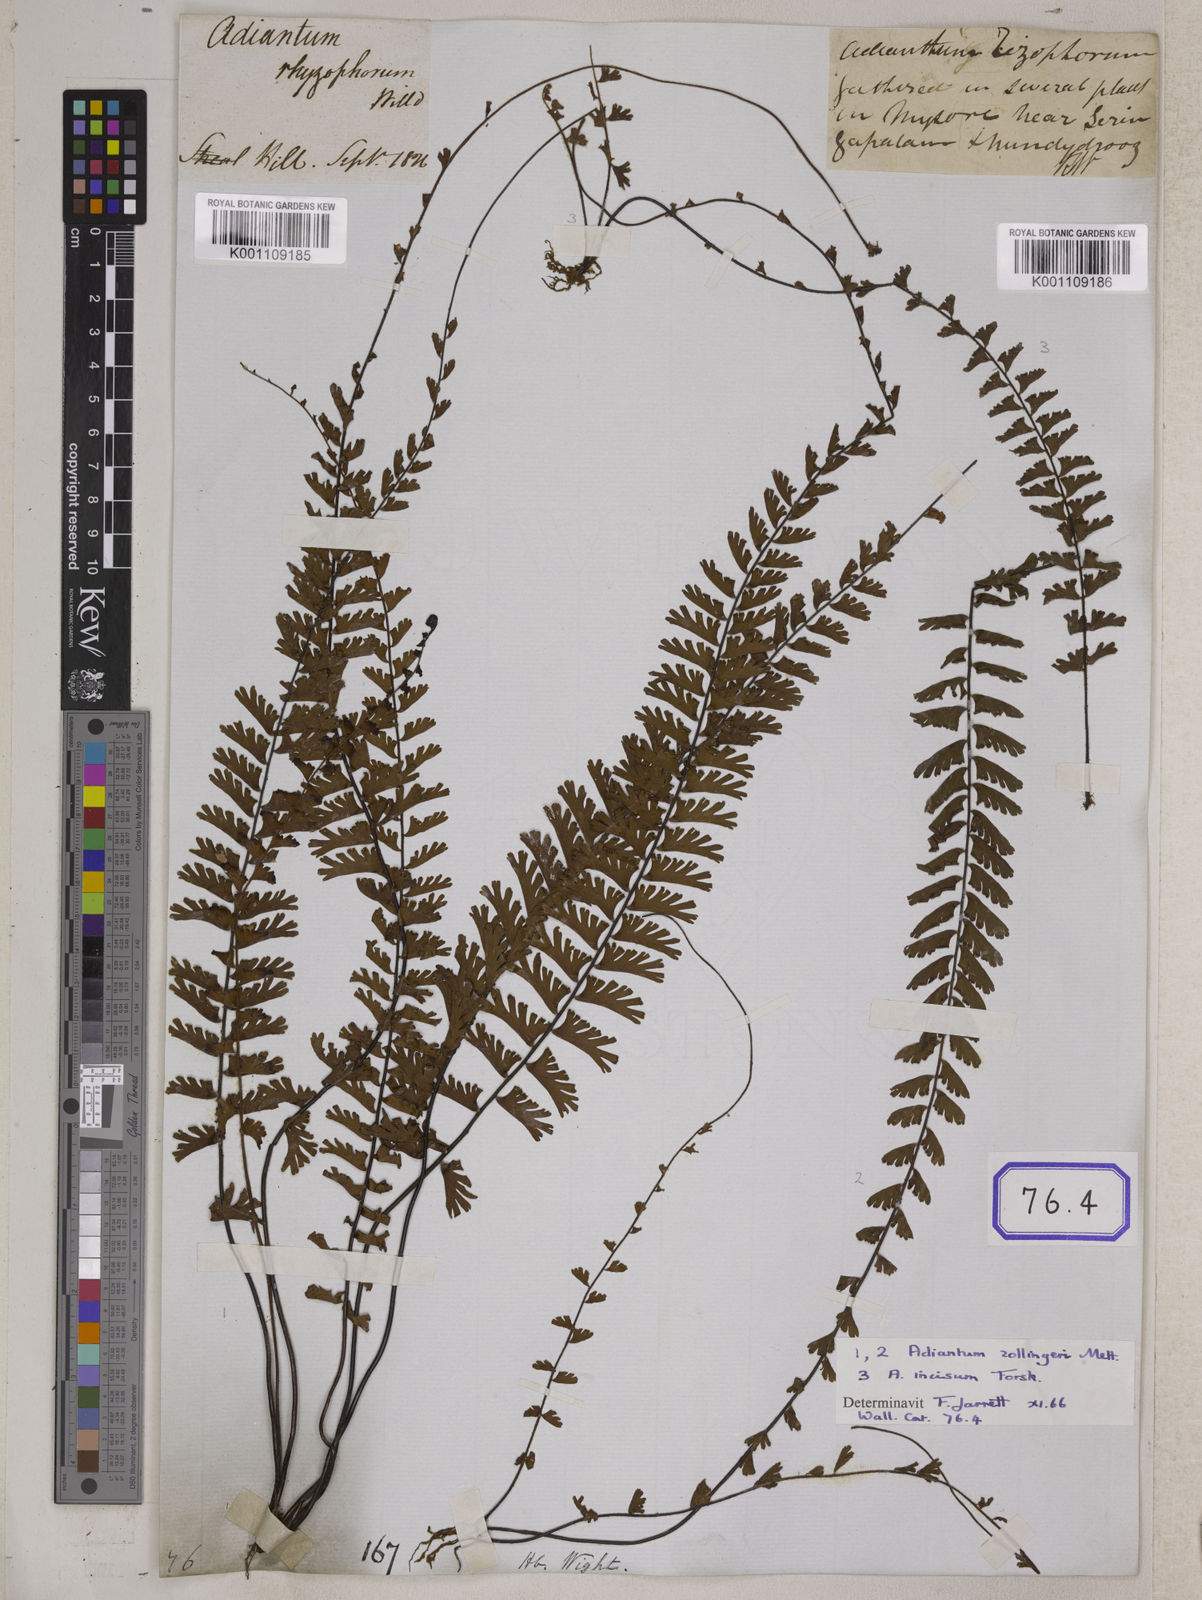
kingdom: Plantae
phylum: Tracheophyta
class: Polypodiopsida
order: Polypodiales
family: Pteridaceae
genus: Adiantum
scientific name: Adiantum caudatum
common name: Tailed maidenhair
